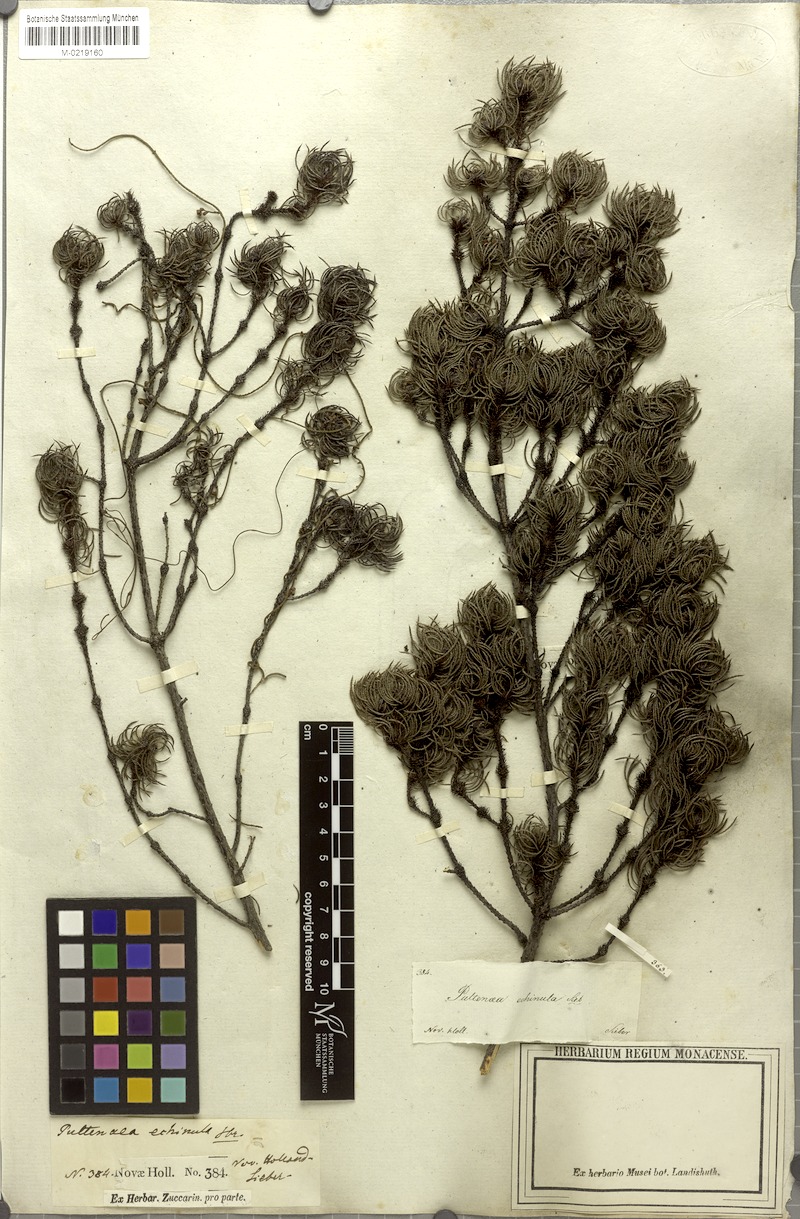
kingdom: Plantae
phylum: Tracheophyta
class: Magnoliopsida
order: Fabales
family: Fabaceae
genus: Pultenaea
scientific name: Pultenaea echinula
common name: Curved bush-pea
